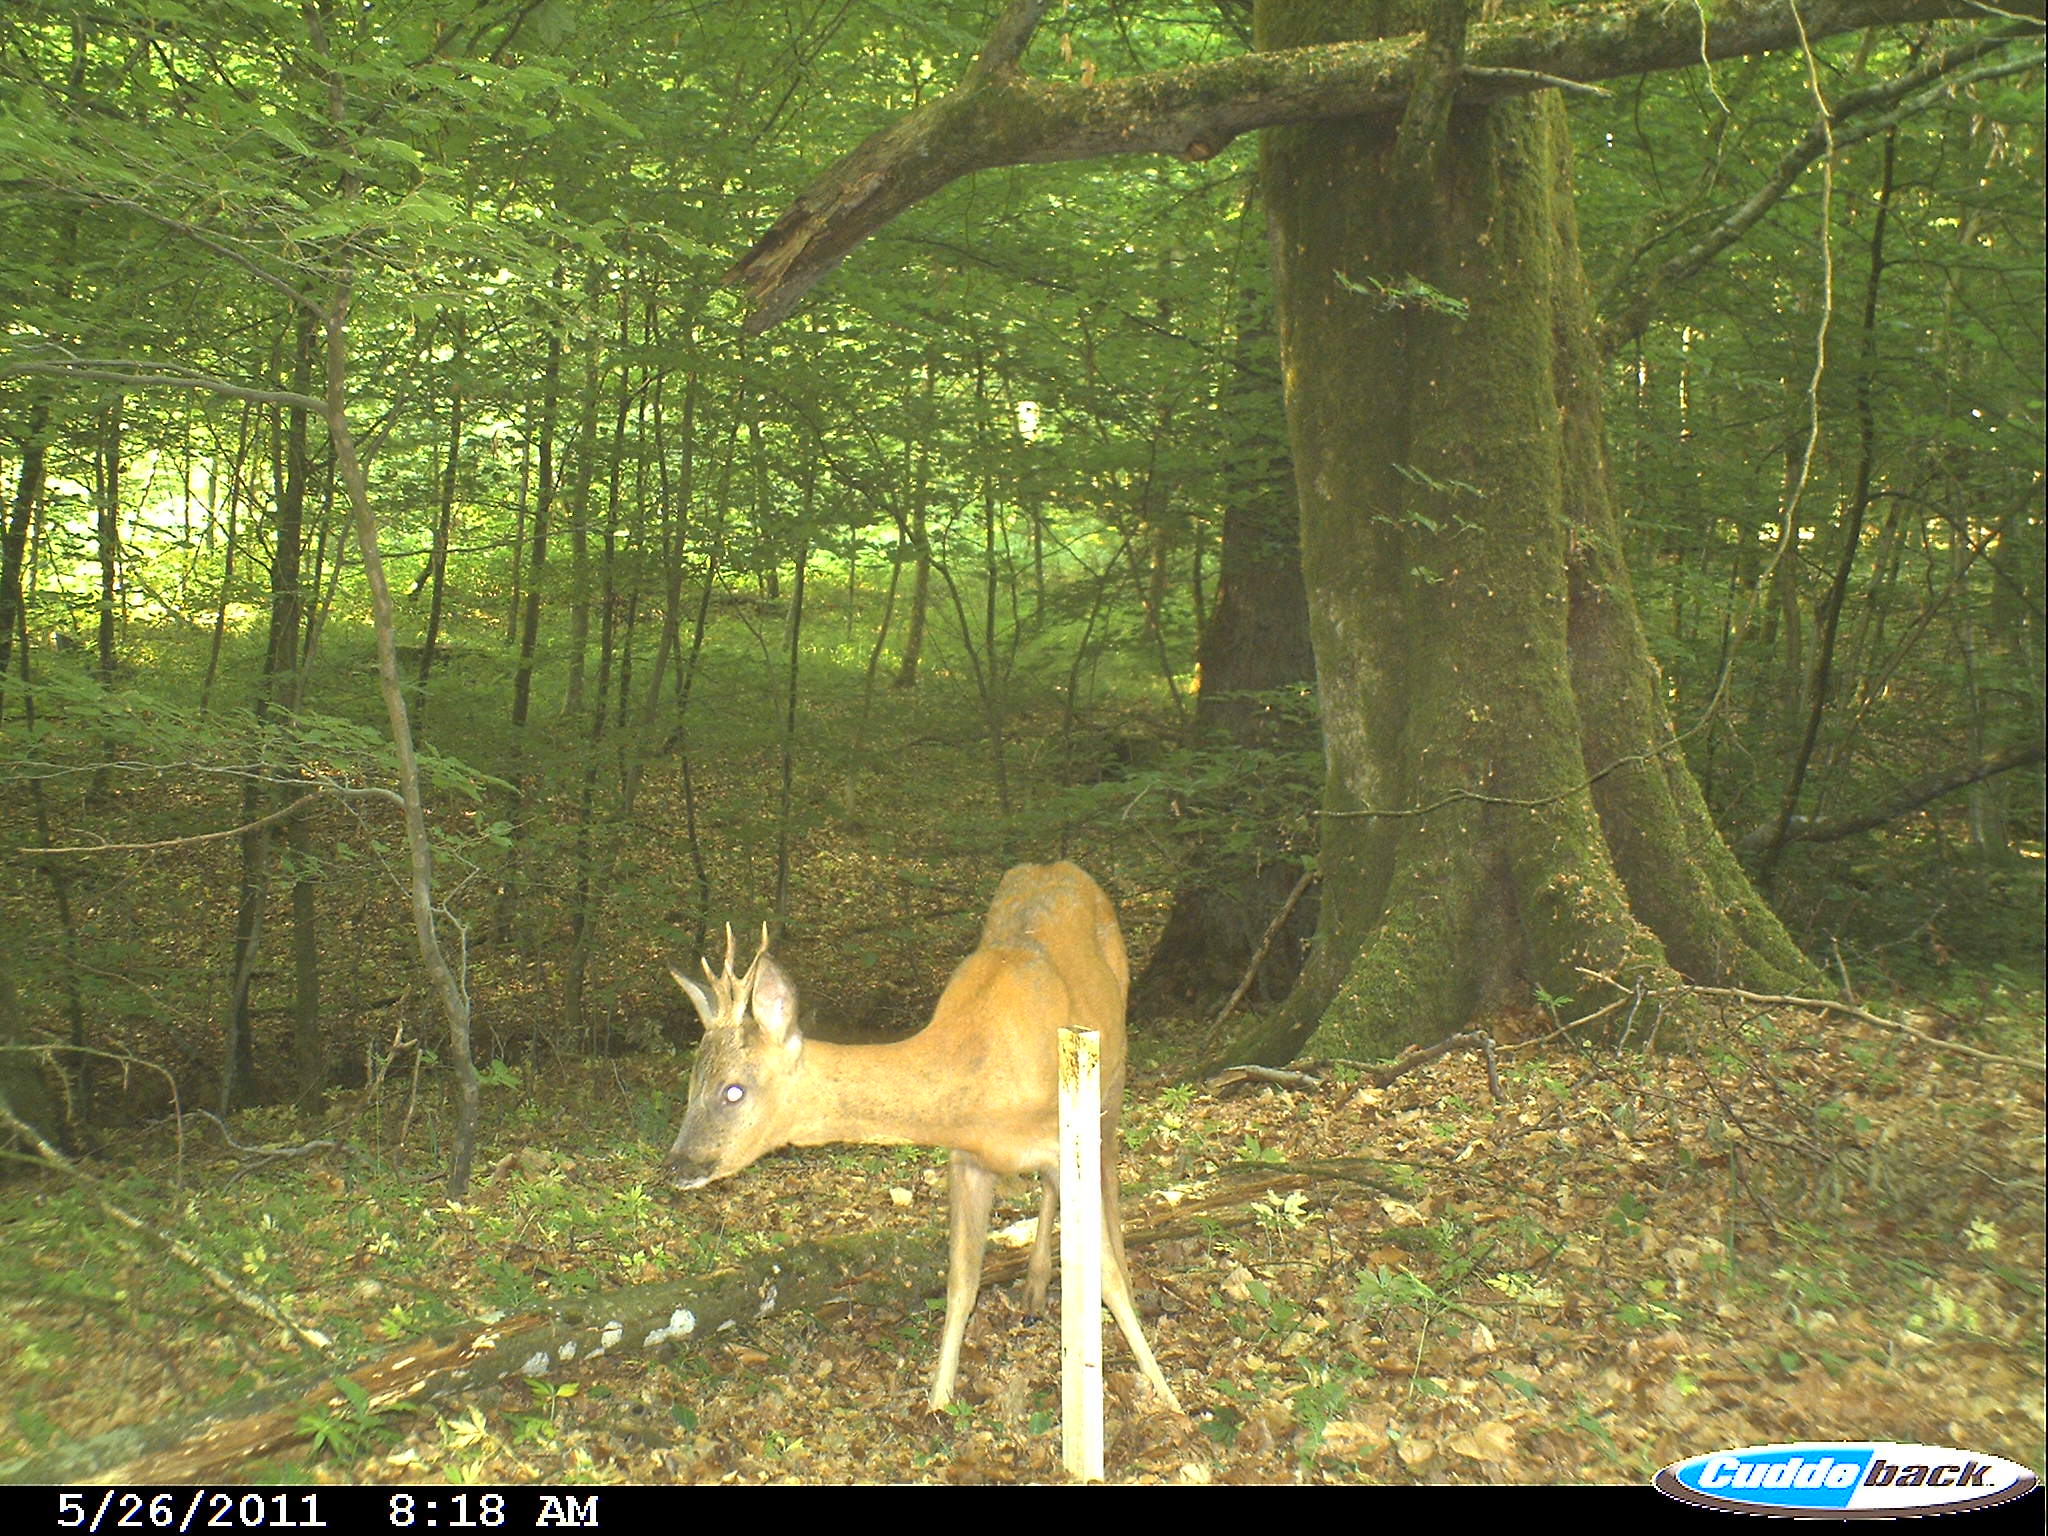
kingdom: Animalia
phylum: Chordata
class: Mammalia
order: Artiodactyla
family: Cervidae
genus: Capreolus
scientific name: Capreolus capreolus
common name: Western roe deer
